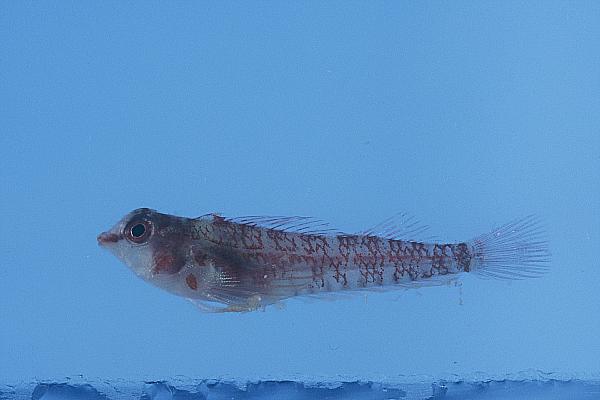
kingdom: Animalia
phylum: Chordata
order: Perciformes
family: Tripterygiidae
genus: Enneapterygius
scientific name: Enneapterygius elaine
